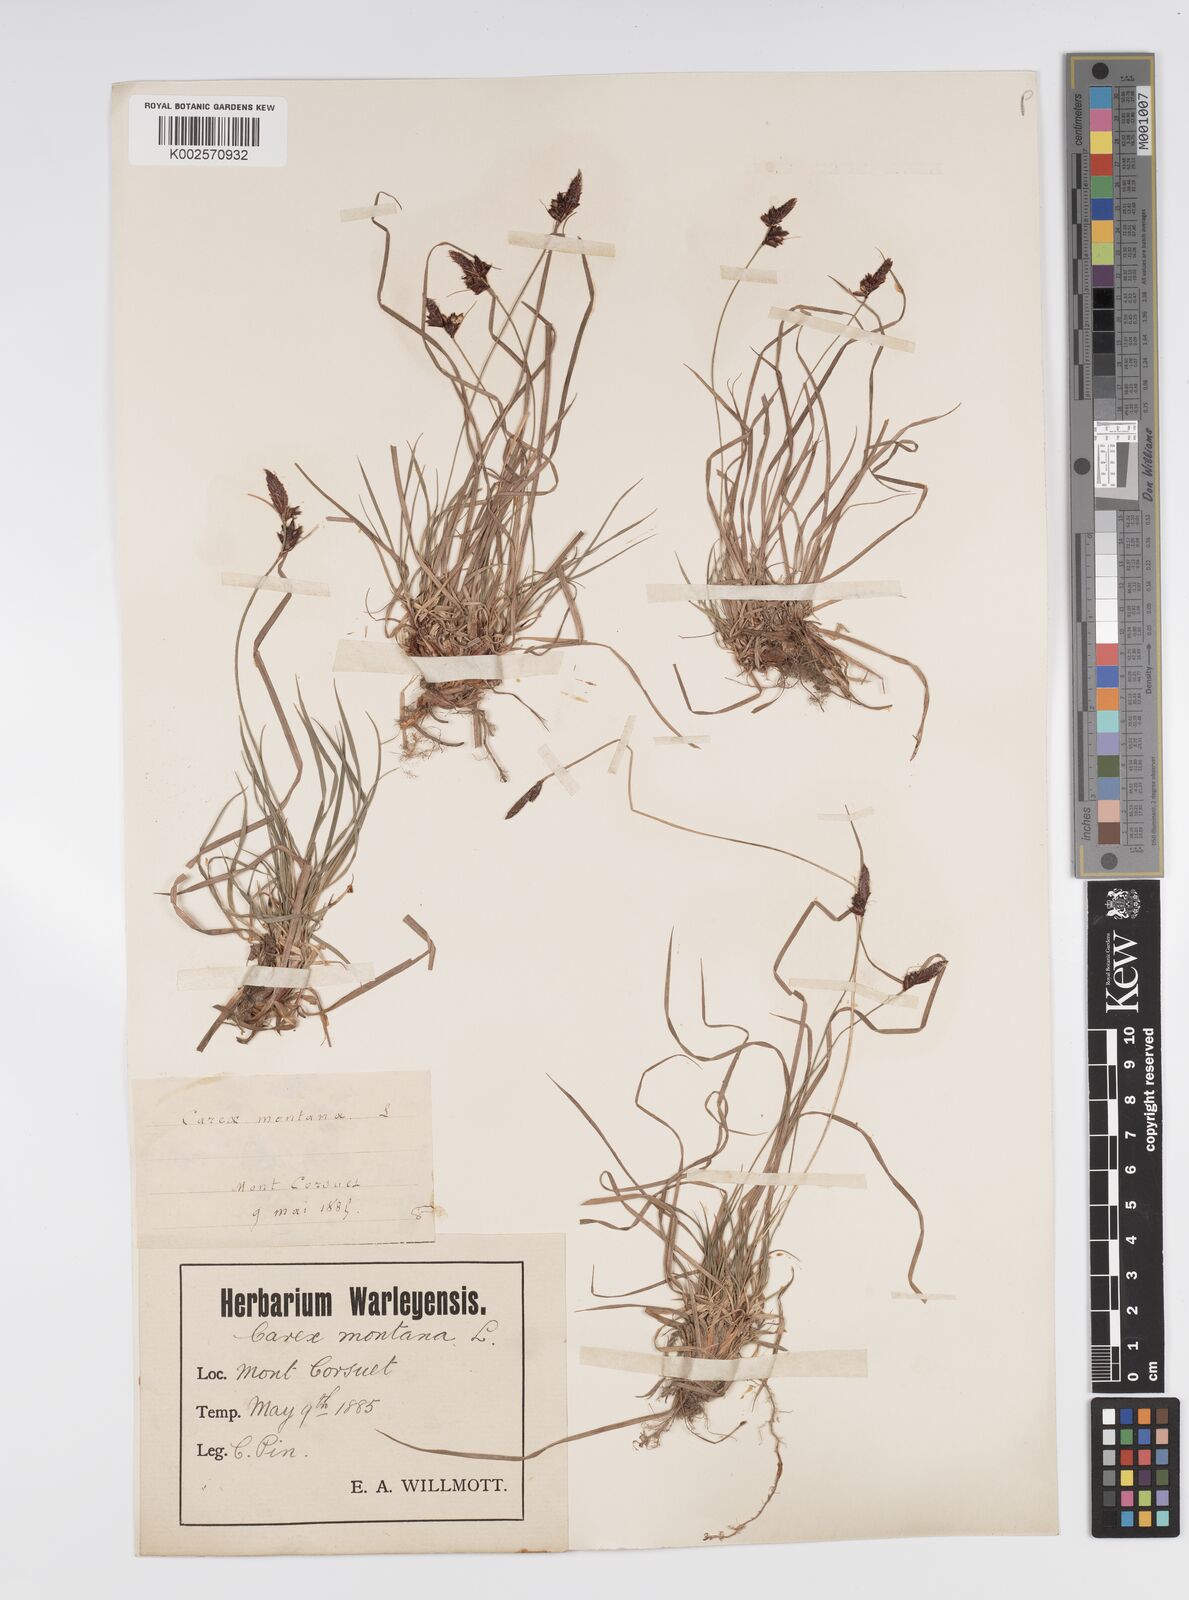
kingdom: Plantae
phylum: Tracheophyta
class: Liliopsida
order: Poales
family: Cyperaceae
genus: Carex
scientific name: Carex montana
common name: Soft-leaved sedge
